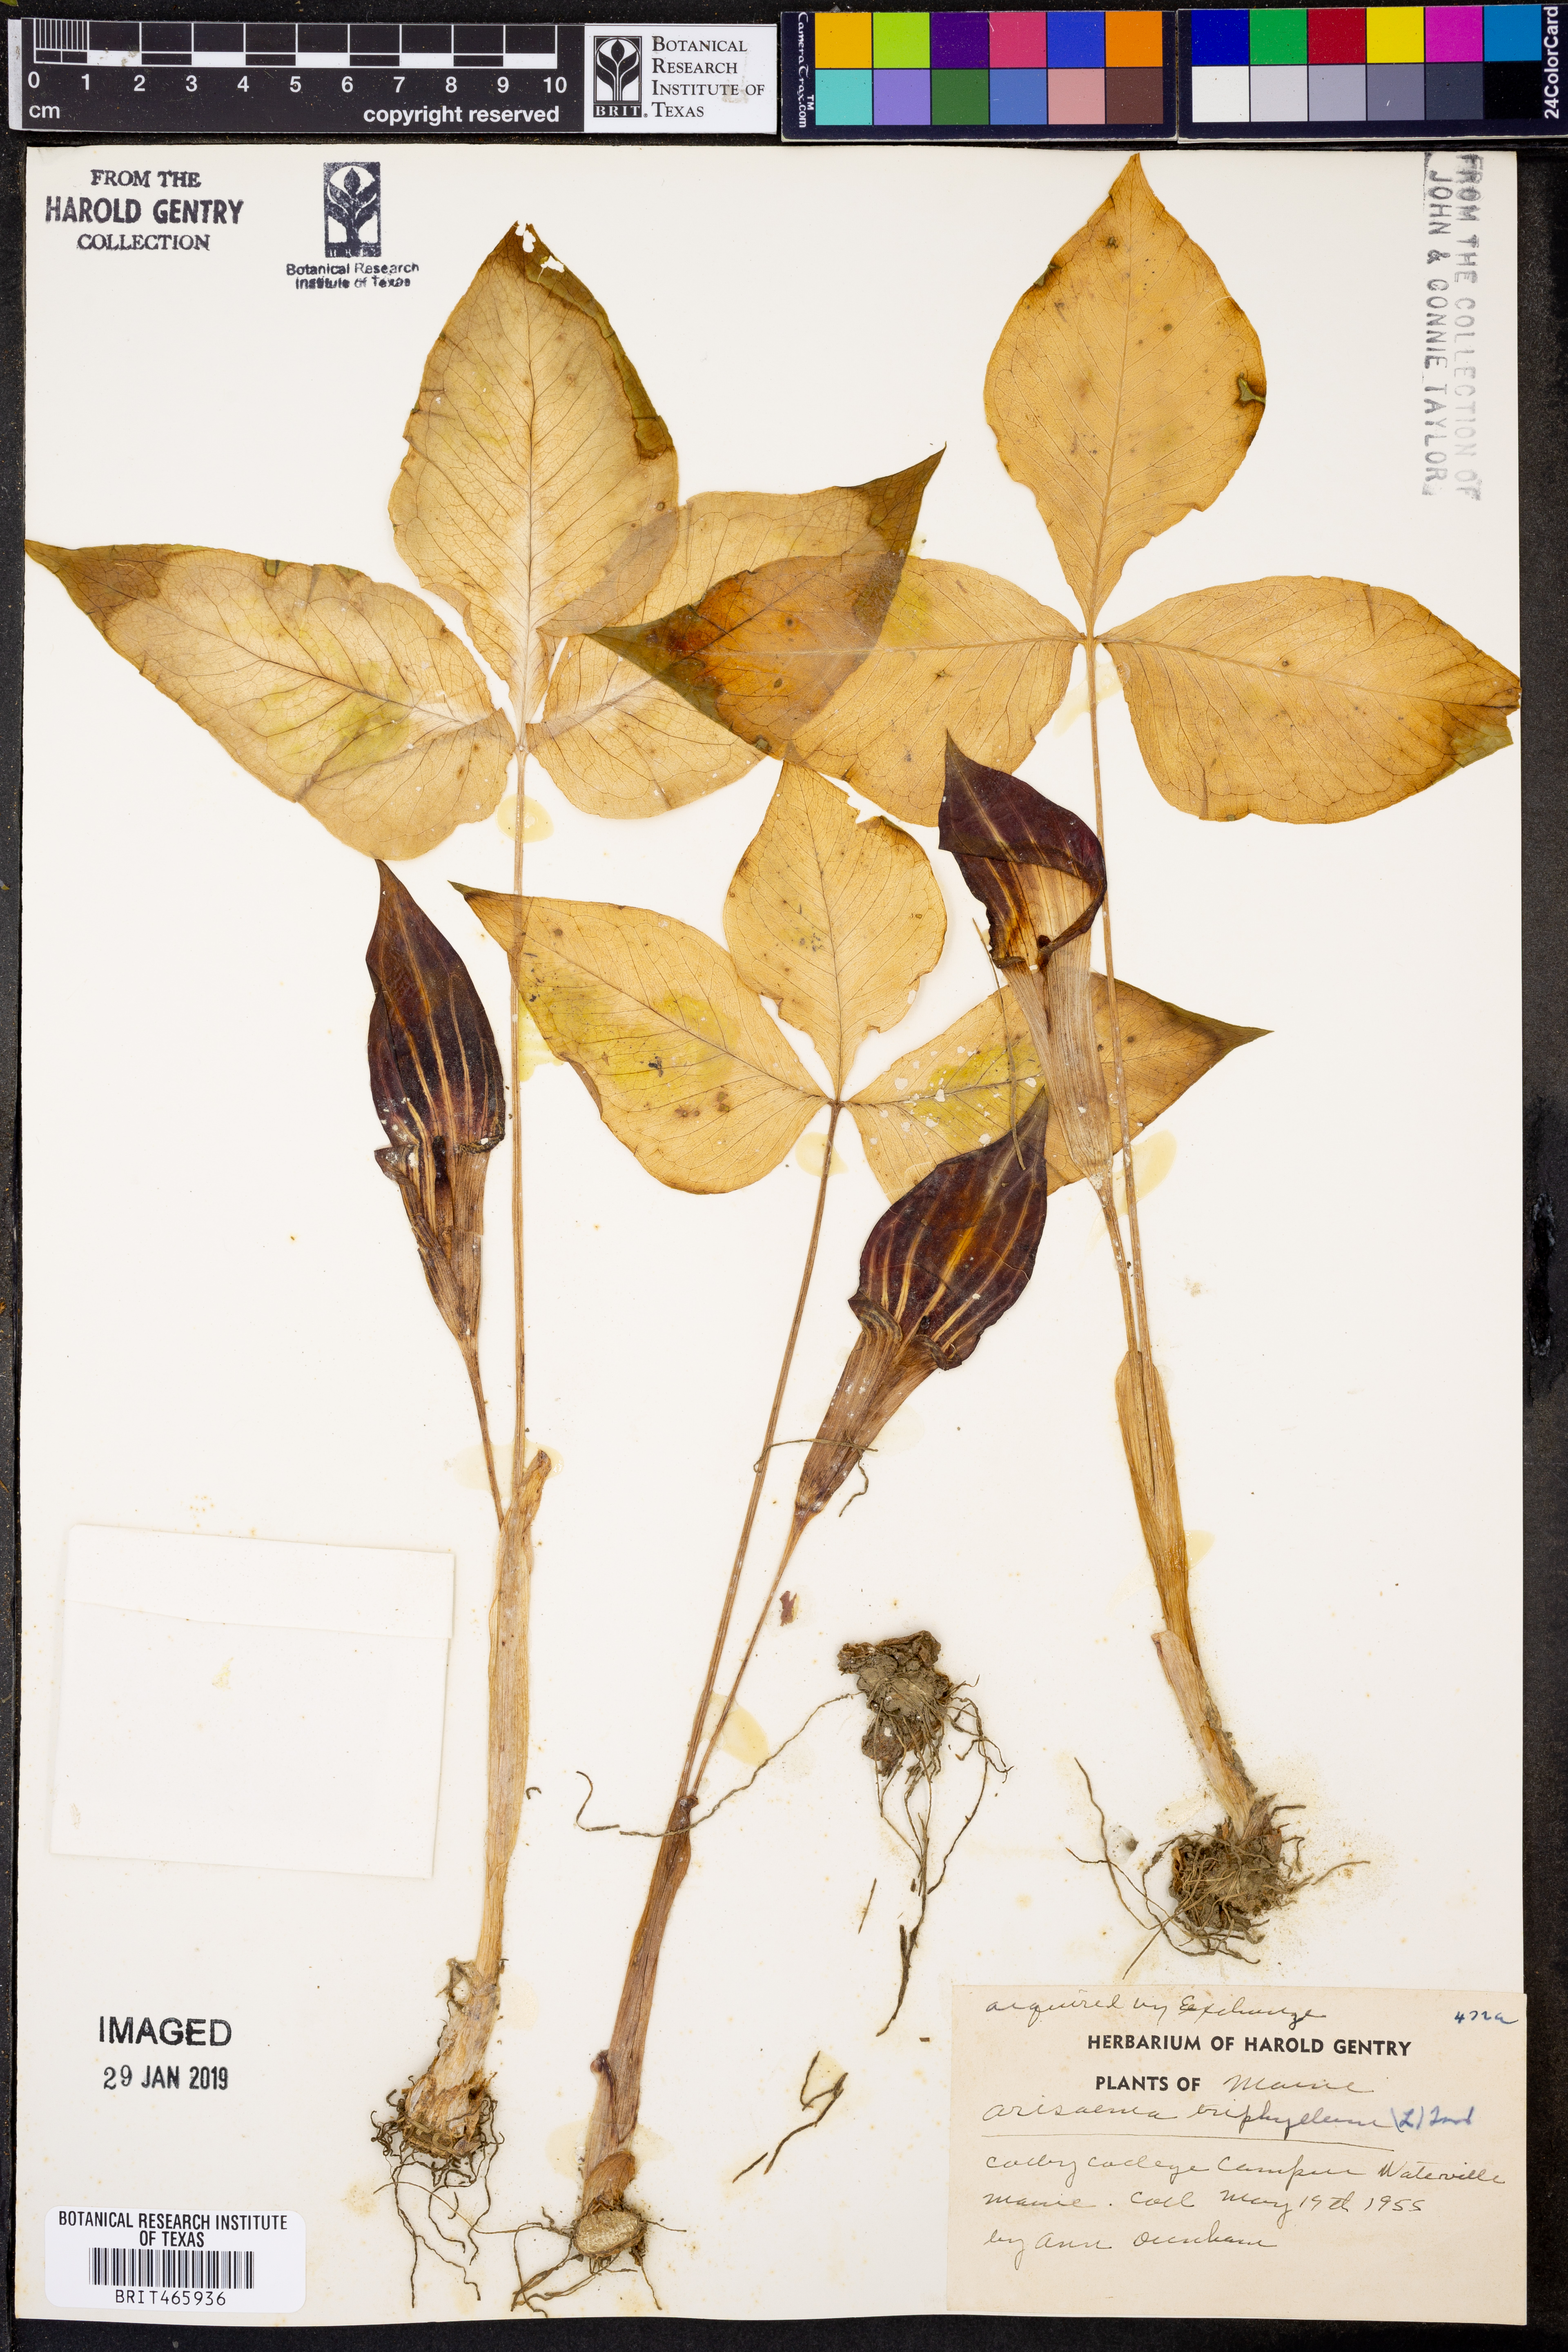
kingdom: Plantae
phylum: Tracheophyta
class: Liliopsida
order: Alismatales
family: Araceae
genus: Arisaema
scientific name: Arisaema triphyllum
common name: Jack-in-the-pulpit
